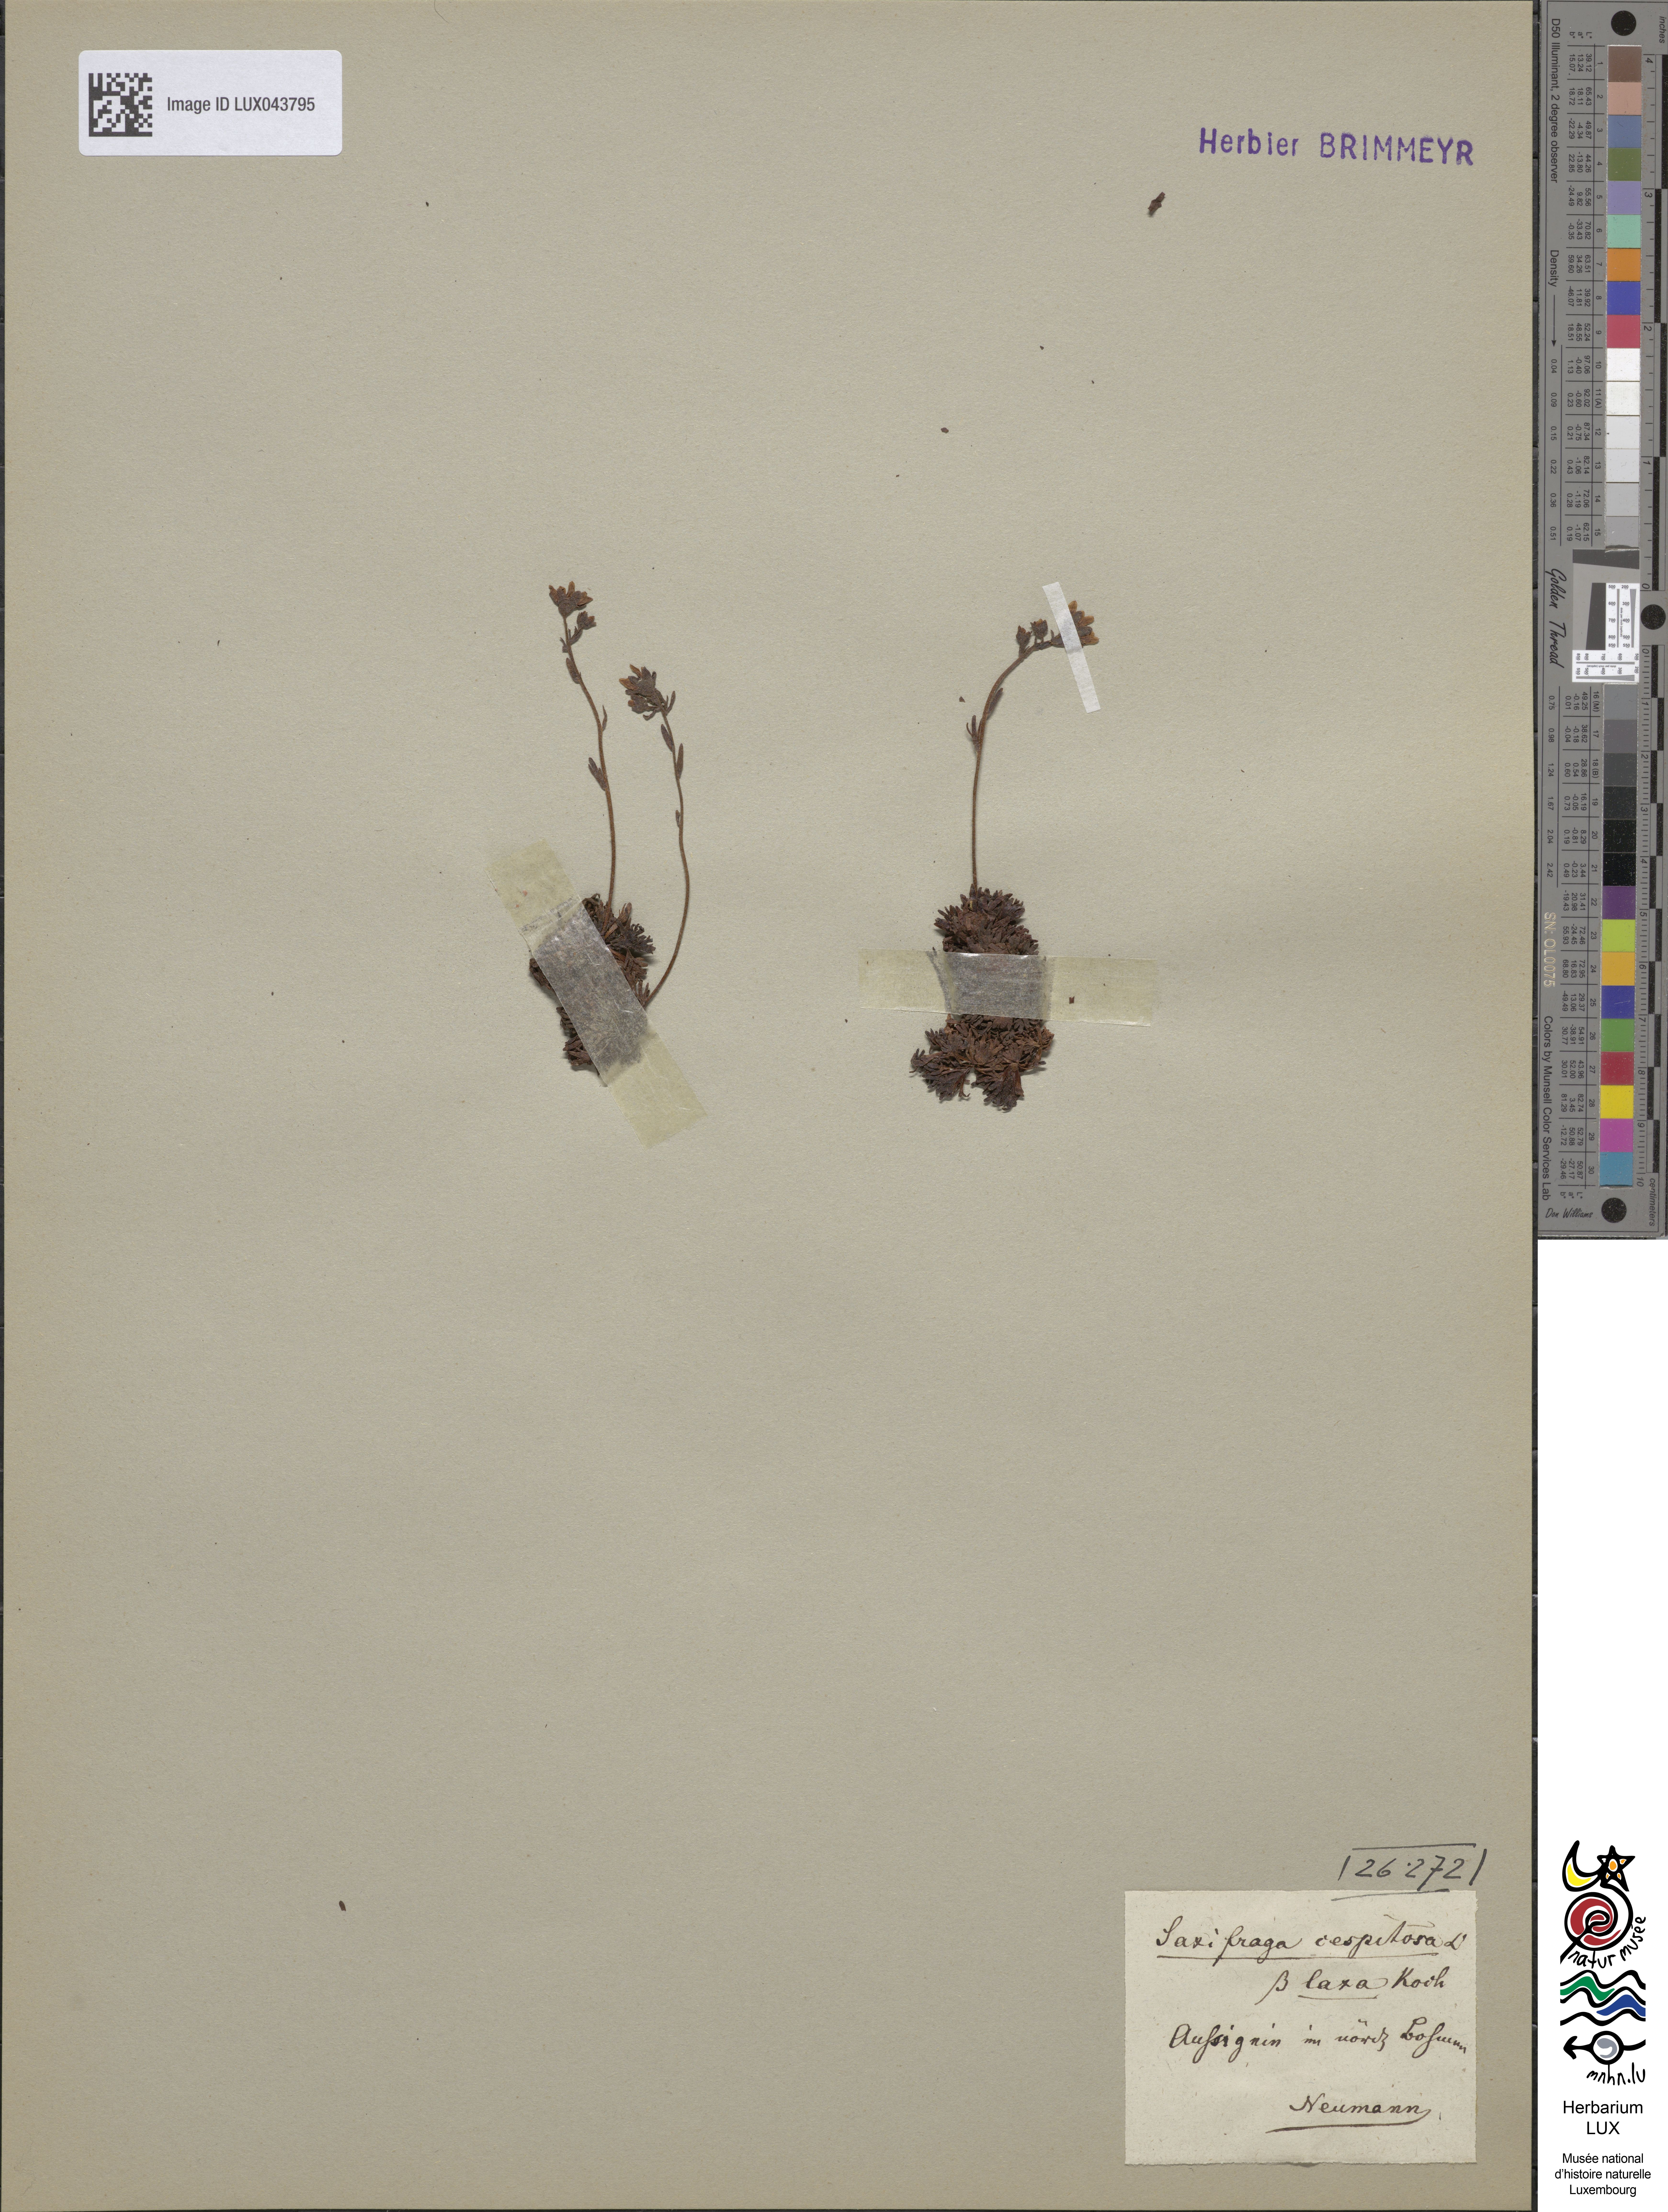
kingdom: Plantae
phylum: Tracheophyta
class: Magnoliopsida
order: Saxifragales
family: Saxifragaceae
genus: Saxifraga
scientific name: Saxifraga cespitosa
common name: Tufted saxifrage
